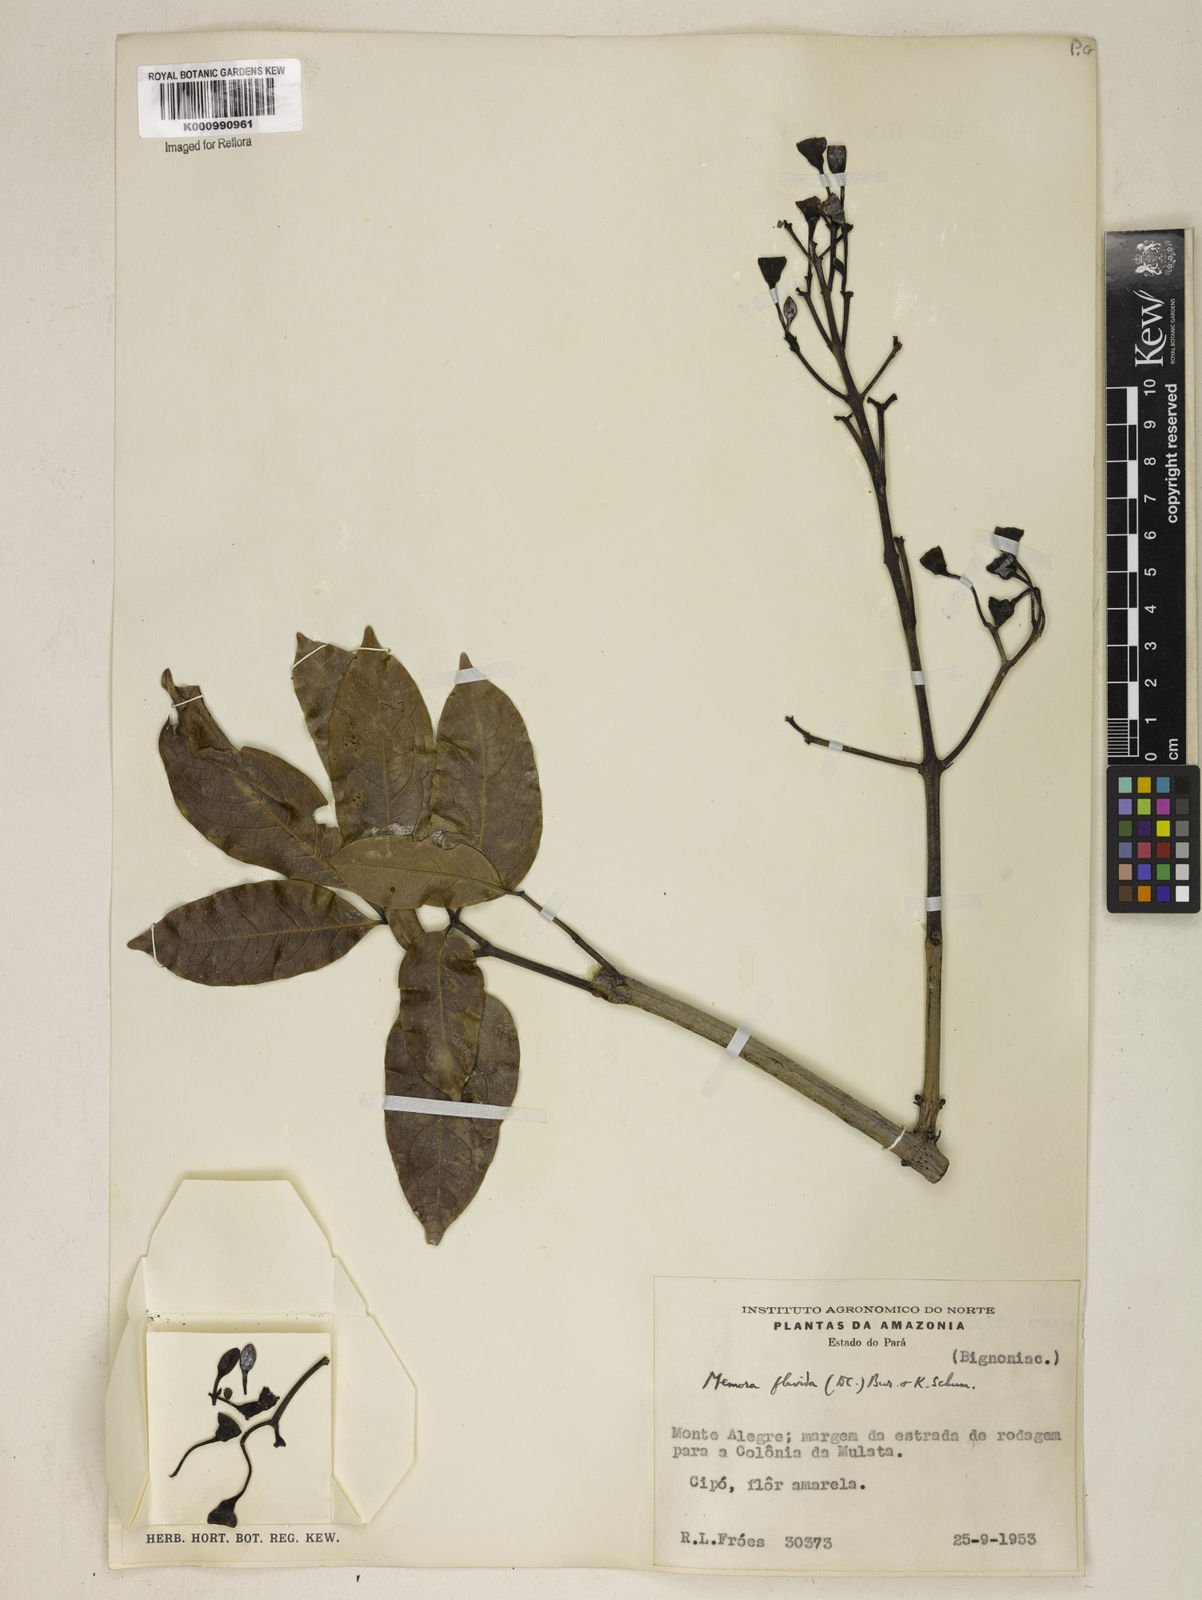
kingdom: Plantae
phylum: Tracheophyta
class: Magnoliopsida
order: Lamiales
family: Bignoniaceae
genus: Adenocalymma
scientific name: Adenocalymma neoflavidum
